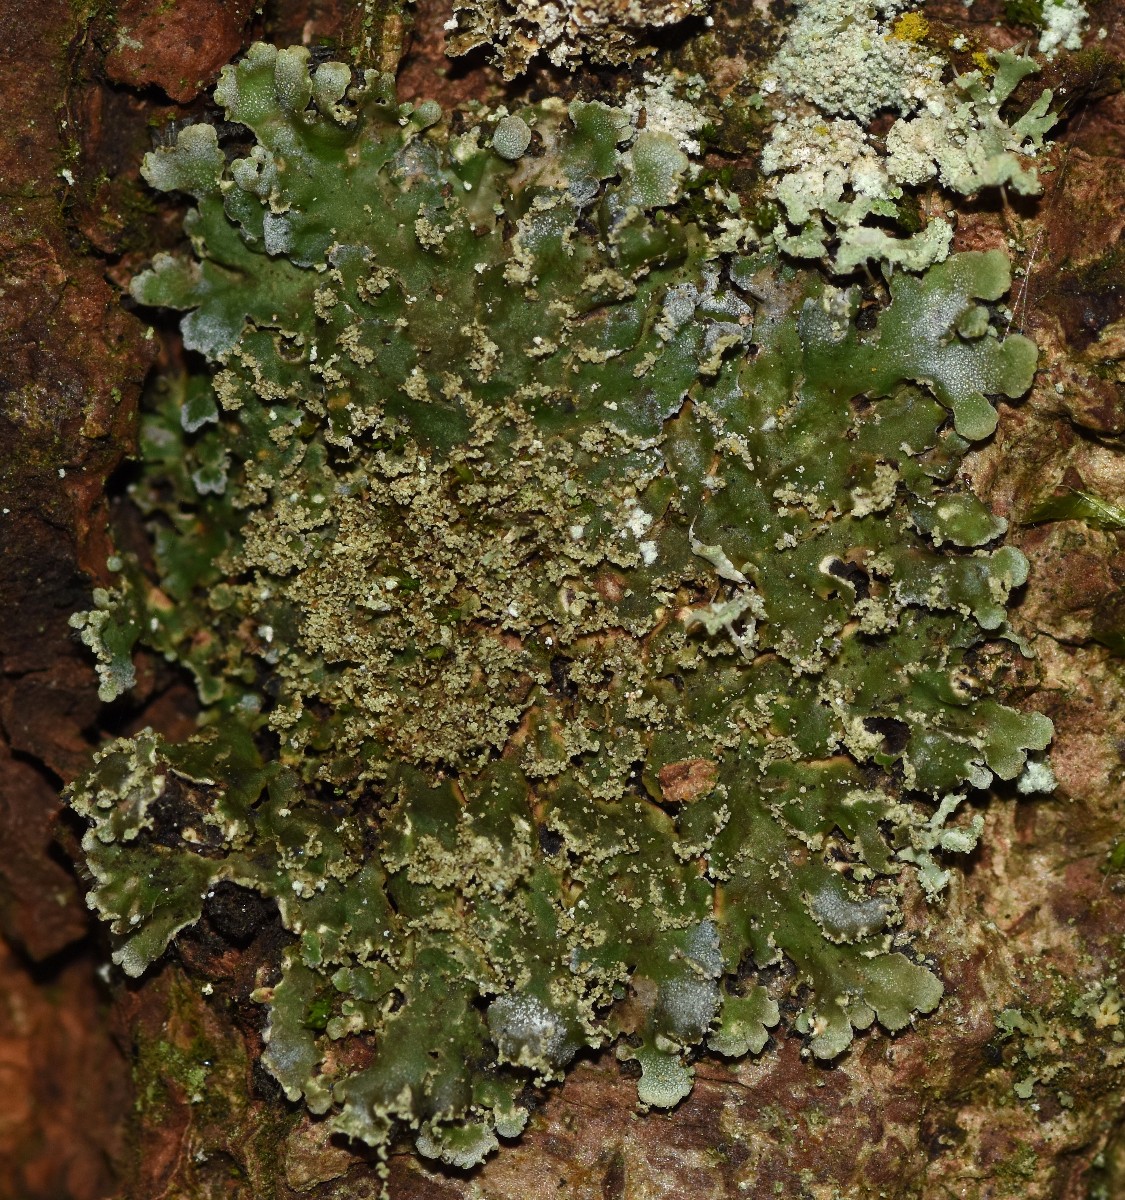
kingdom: Fungi
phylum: Ascomycota
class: Lecanoromycetes
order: Caliciales
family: Physciaceae
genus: Physconia
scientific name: Physconia perisidiosa
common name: liden dugrosetlav
